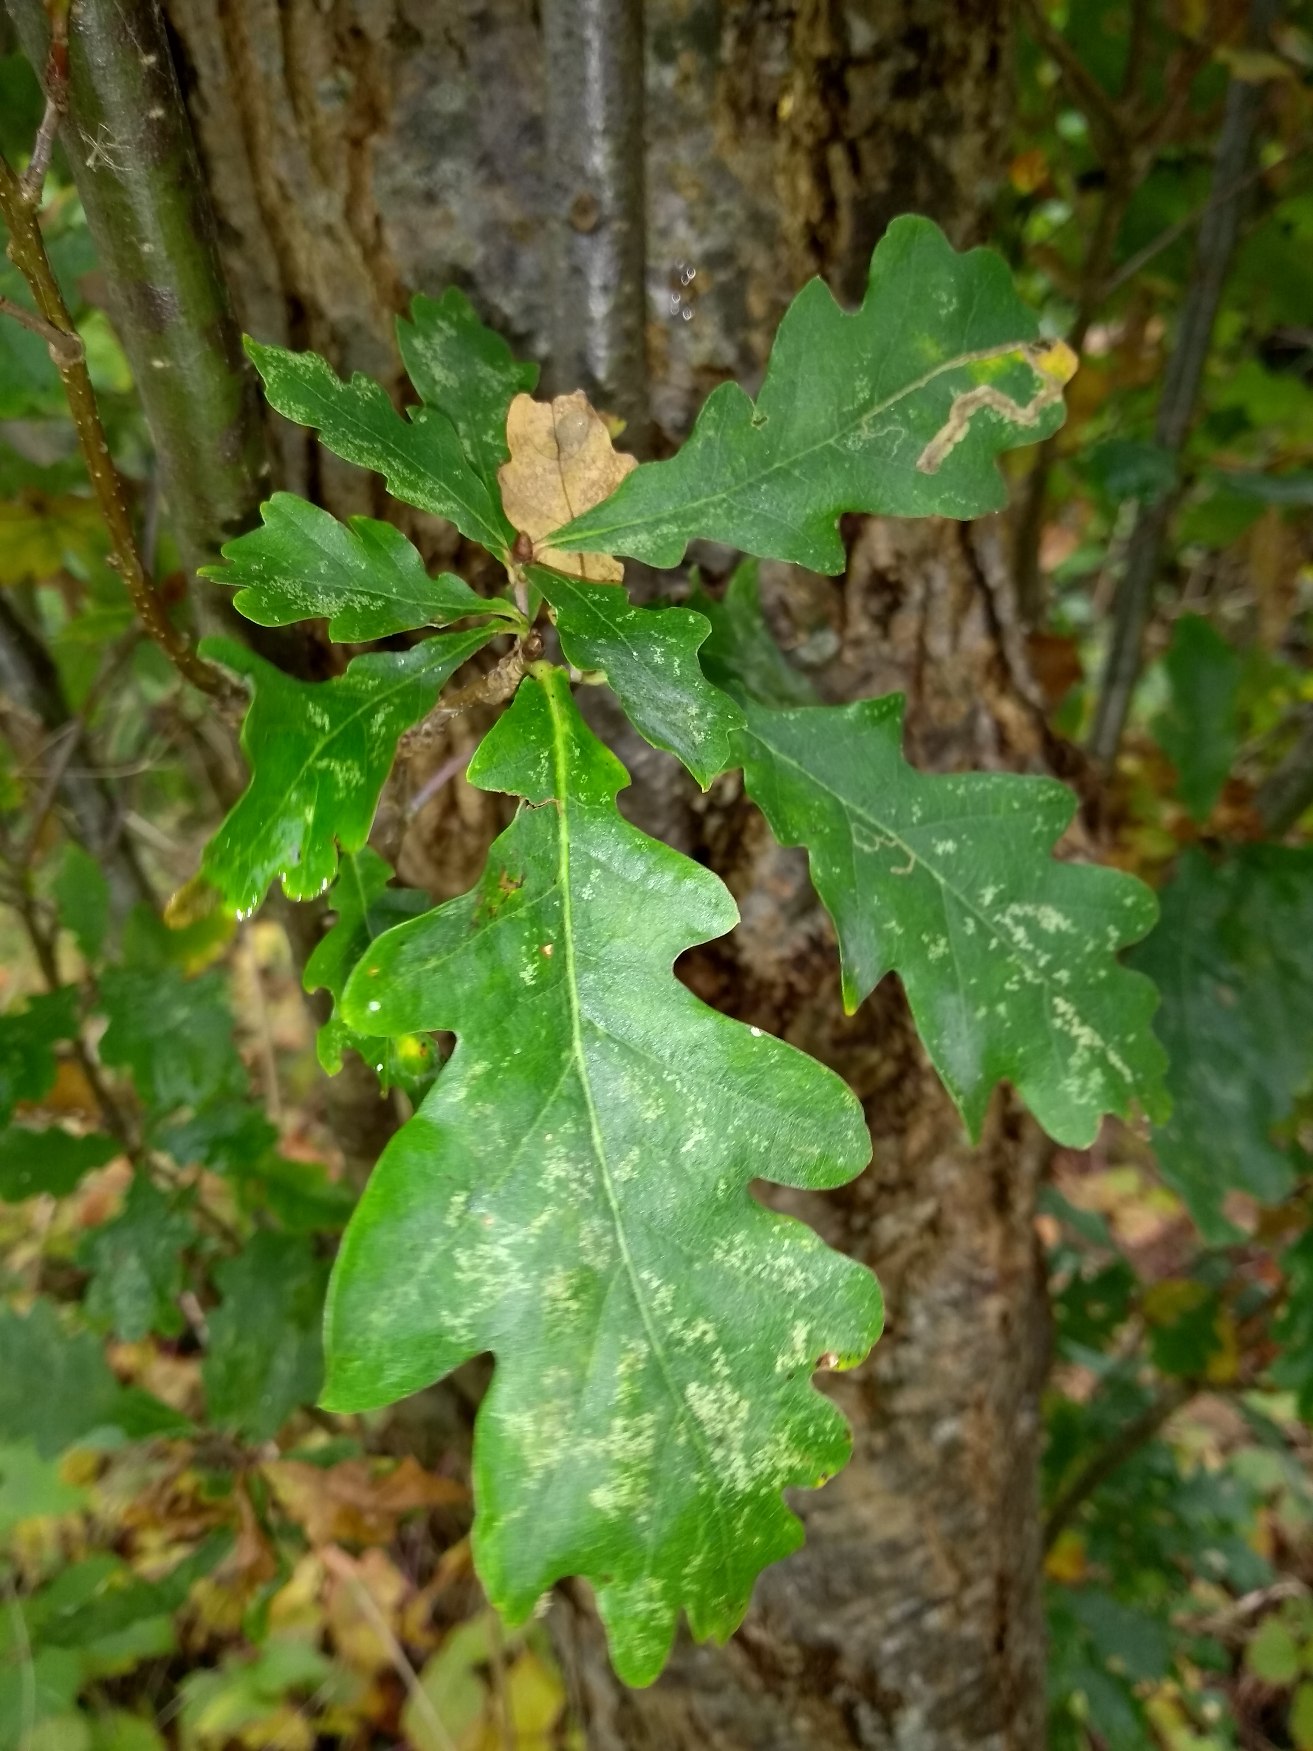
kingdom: Plantae
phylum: Tracheophyta
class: Magnoliopsida
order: Fagales
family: Fagaceae
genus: Quercus
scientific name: Quercus robur
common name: Stilk-eg/almindelig eg
